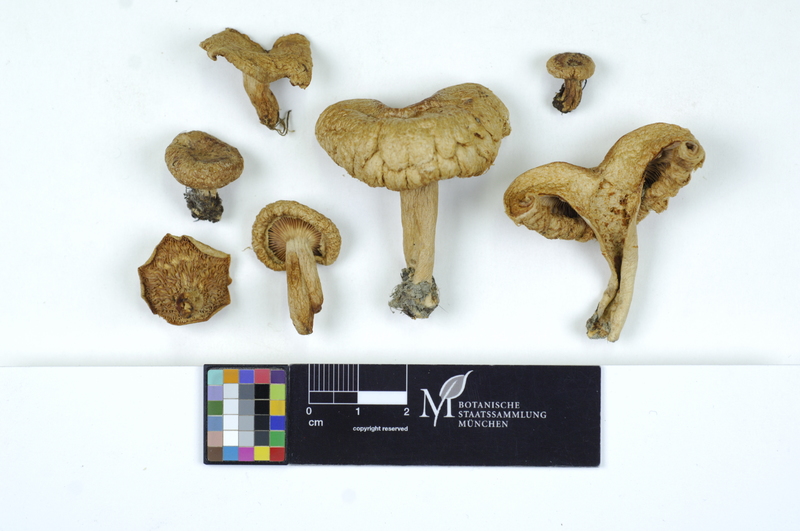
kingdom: Fungi
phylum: Basidiomycota
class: Agaricomycetes
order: Russulales
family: Russulaceae
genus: Lactarius
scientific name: Lactarius torminosus
